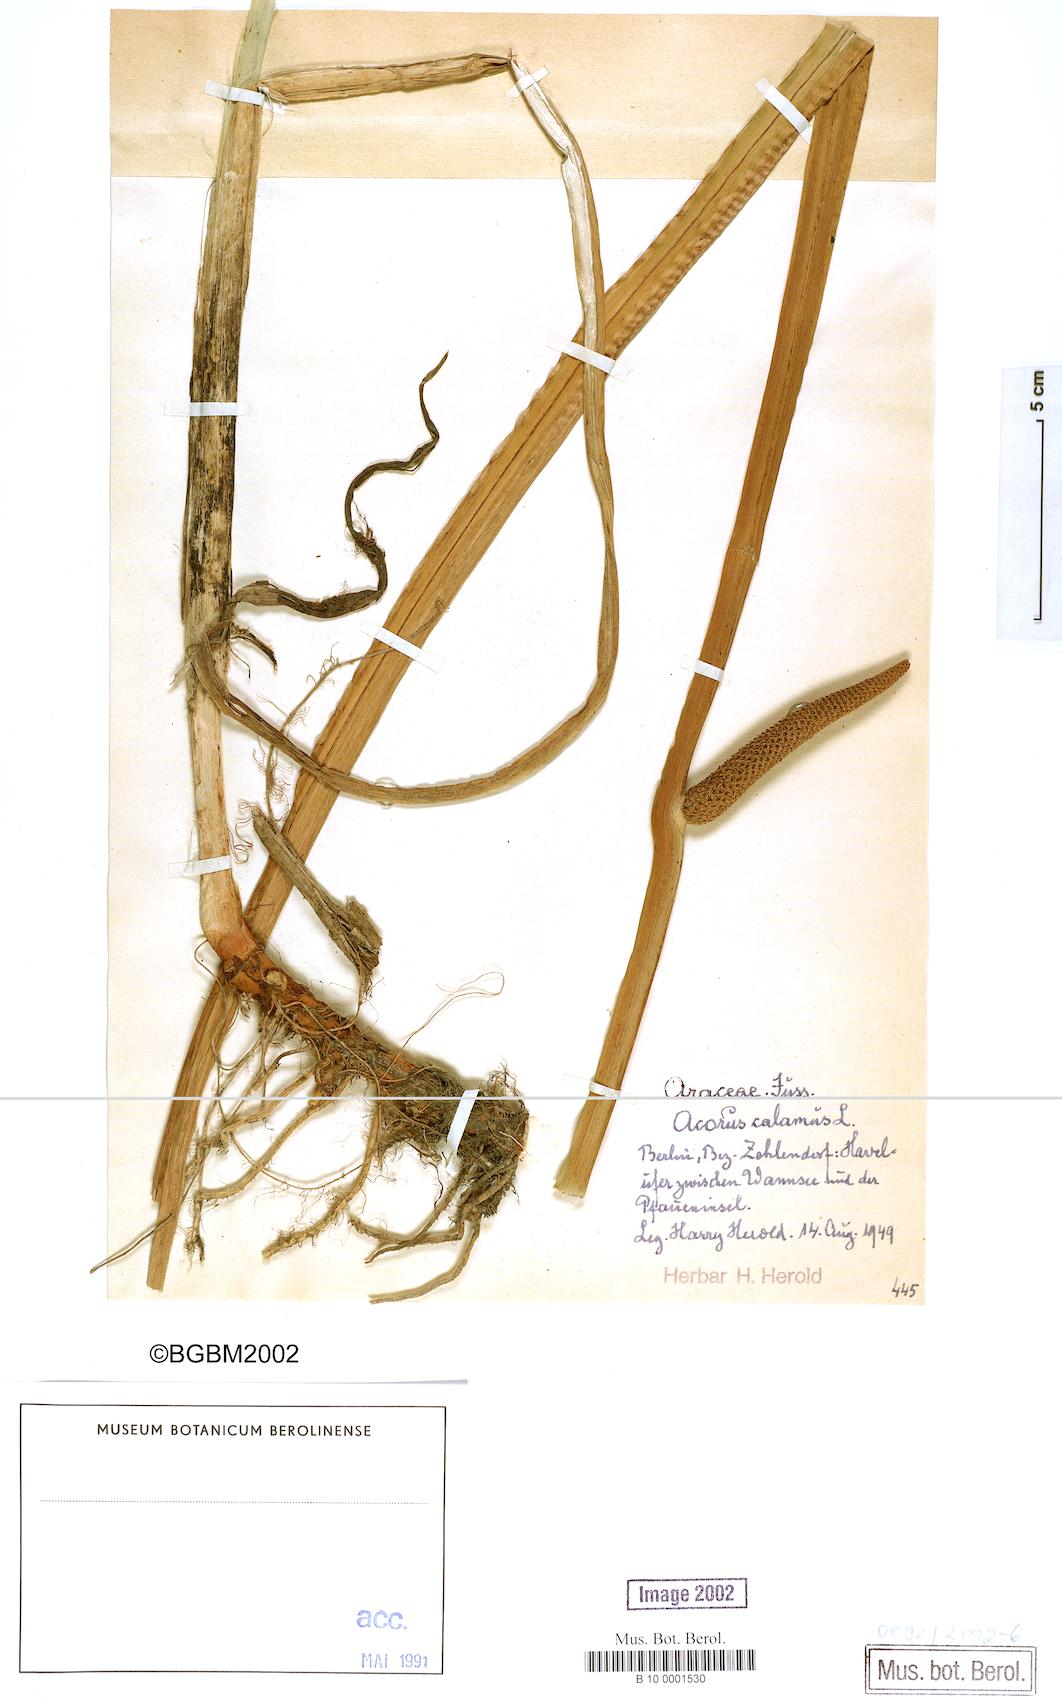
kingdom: Plantae
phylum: Tracheophyta
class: Liliopsida
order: Acorales
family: Acoraceae
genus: Acorus
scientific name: Acorus calamus
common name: Sweet-flag
